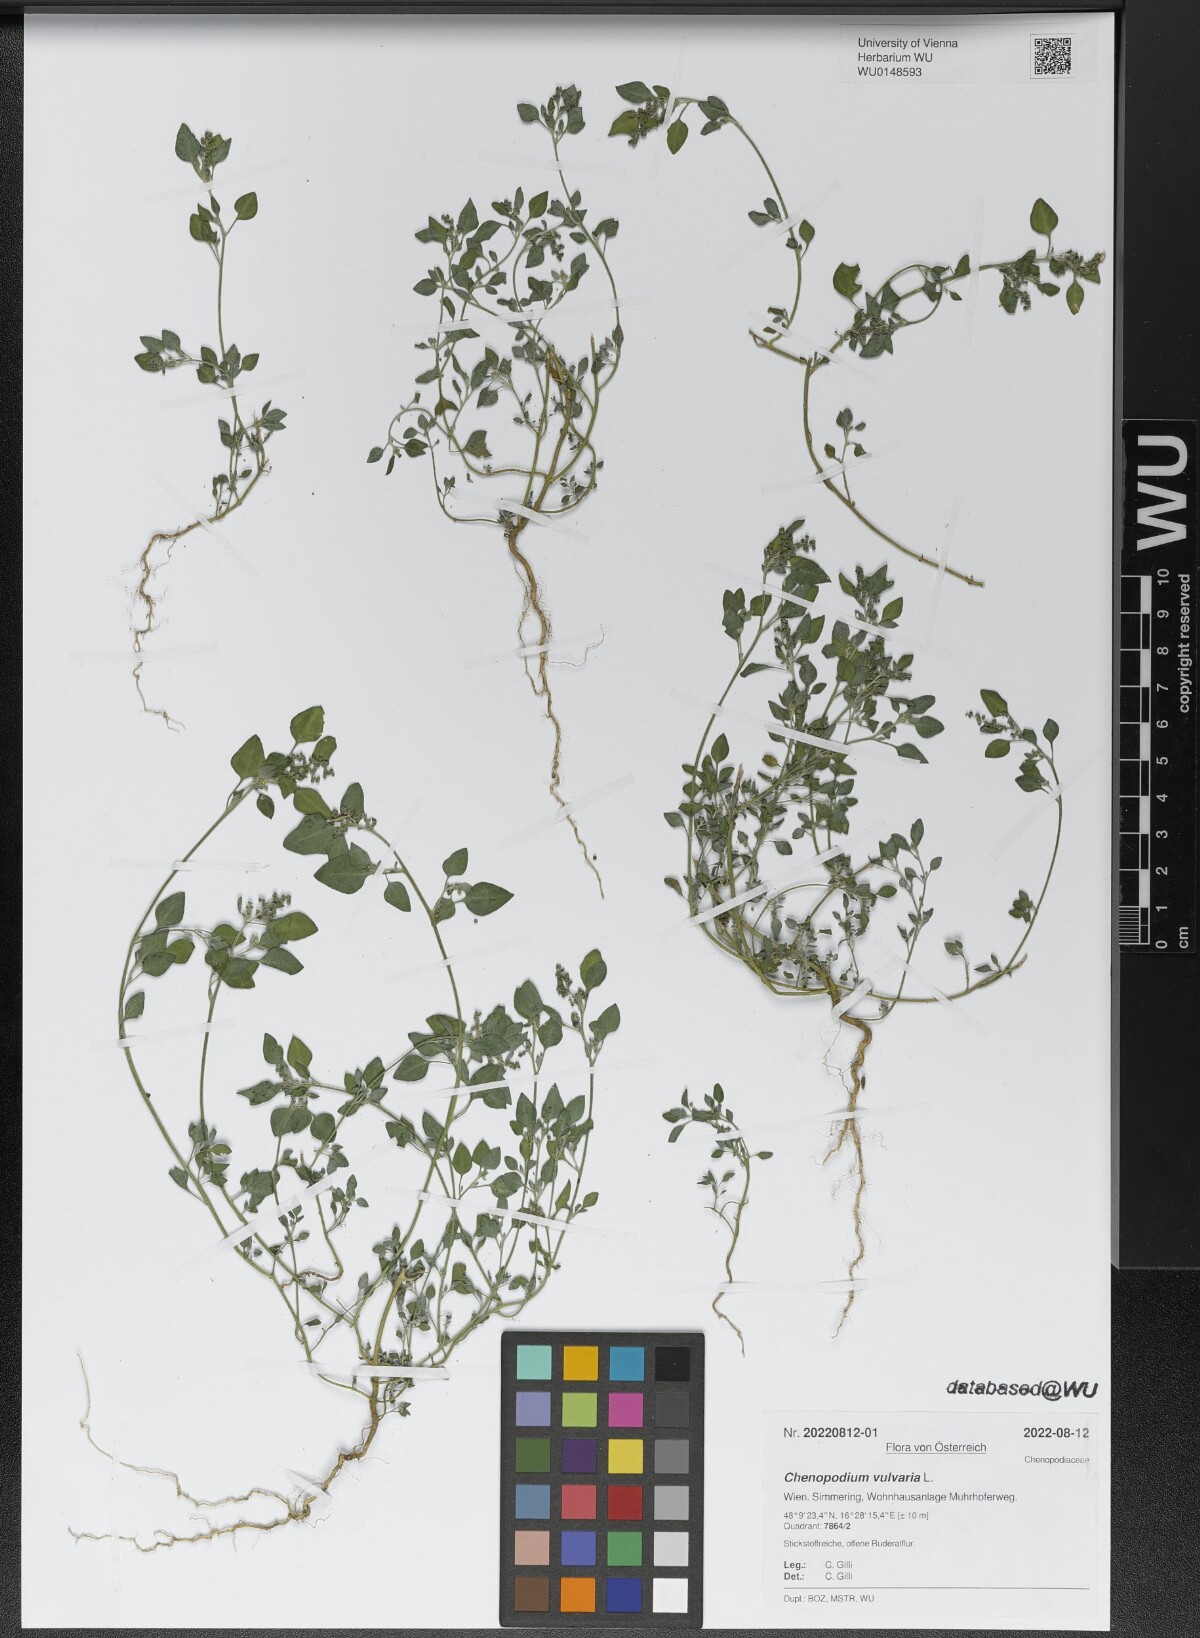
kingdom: Plantae
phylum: Tracheophyta
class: Magnoliopsida
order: Caryophyllales
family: Amaranthaceae
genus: Chenopodium
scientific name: Chenopodium vulvaria
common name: Stinking goosefoot
